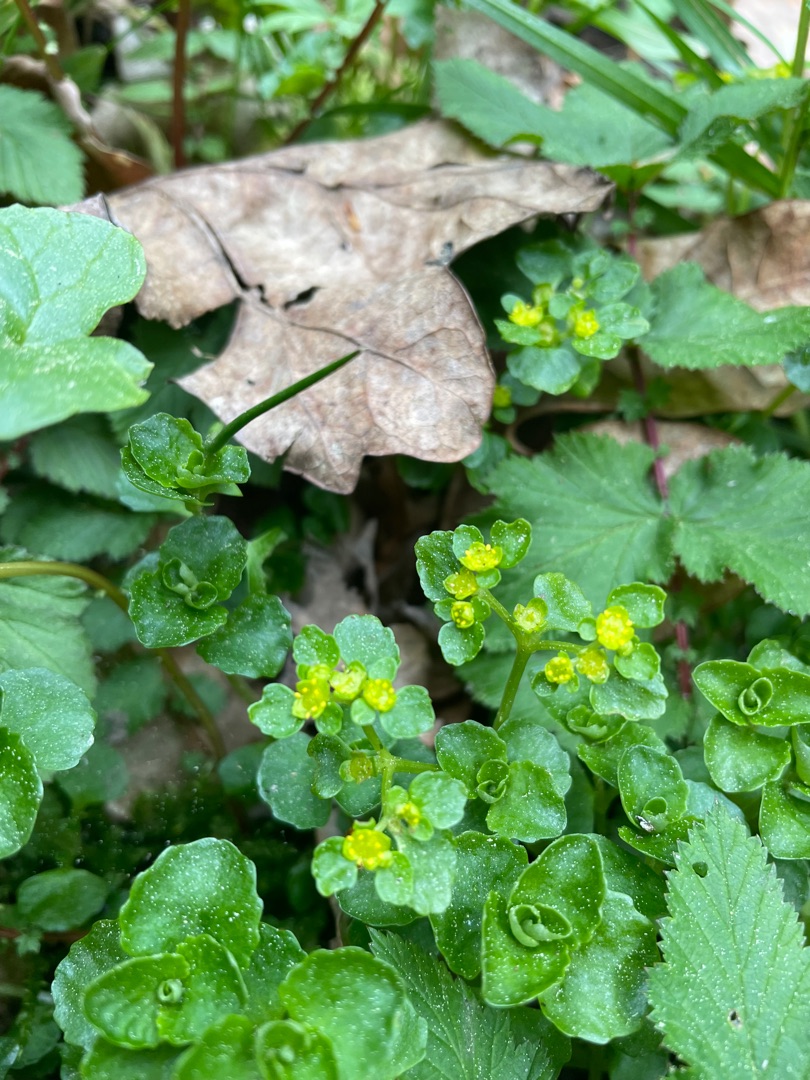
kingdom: Plantae
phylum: Tracheophyta
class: Magnoliopsida
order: Saxifragales
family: Saxifragaceae
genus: Chrysosplenium
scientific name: Chrysosplenium oppositifolium
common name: Småbladet milturt
